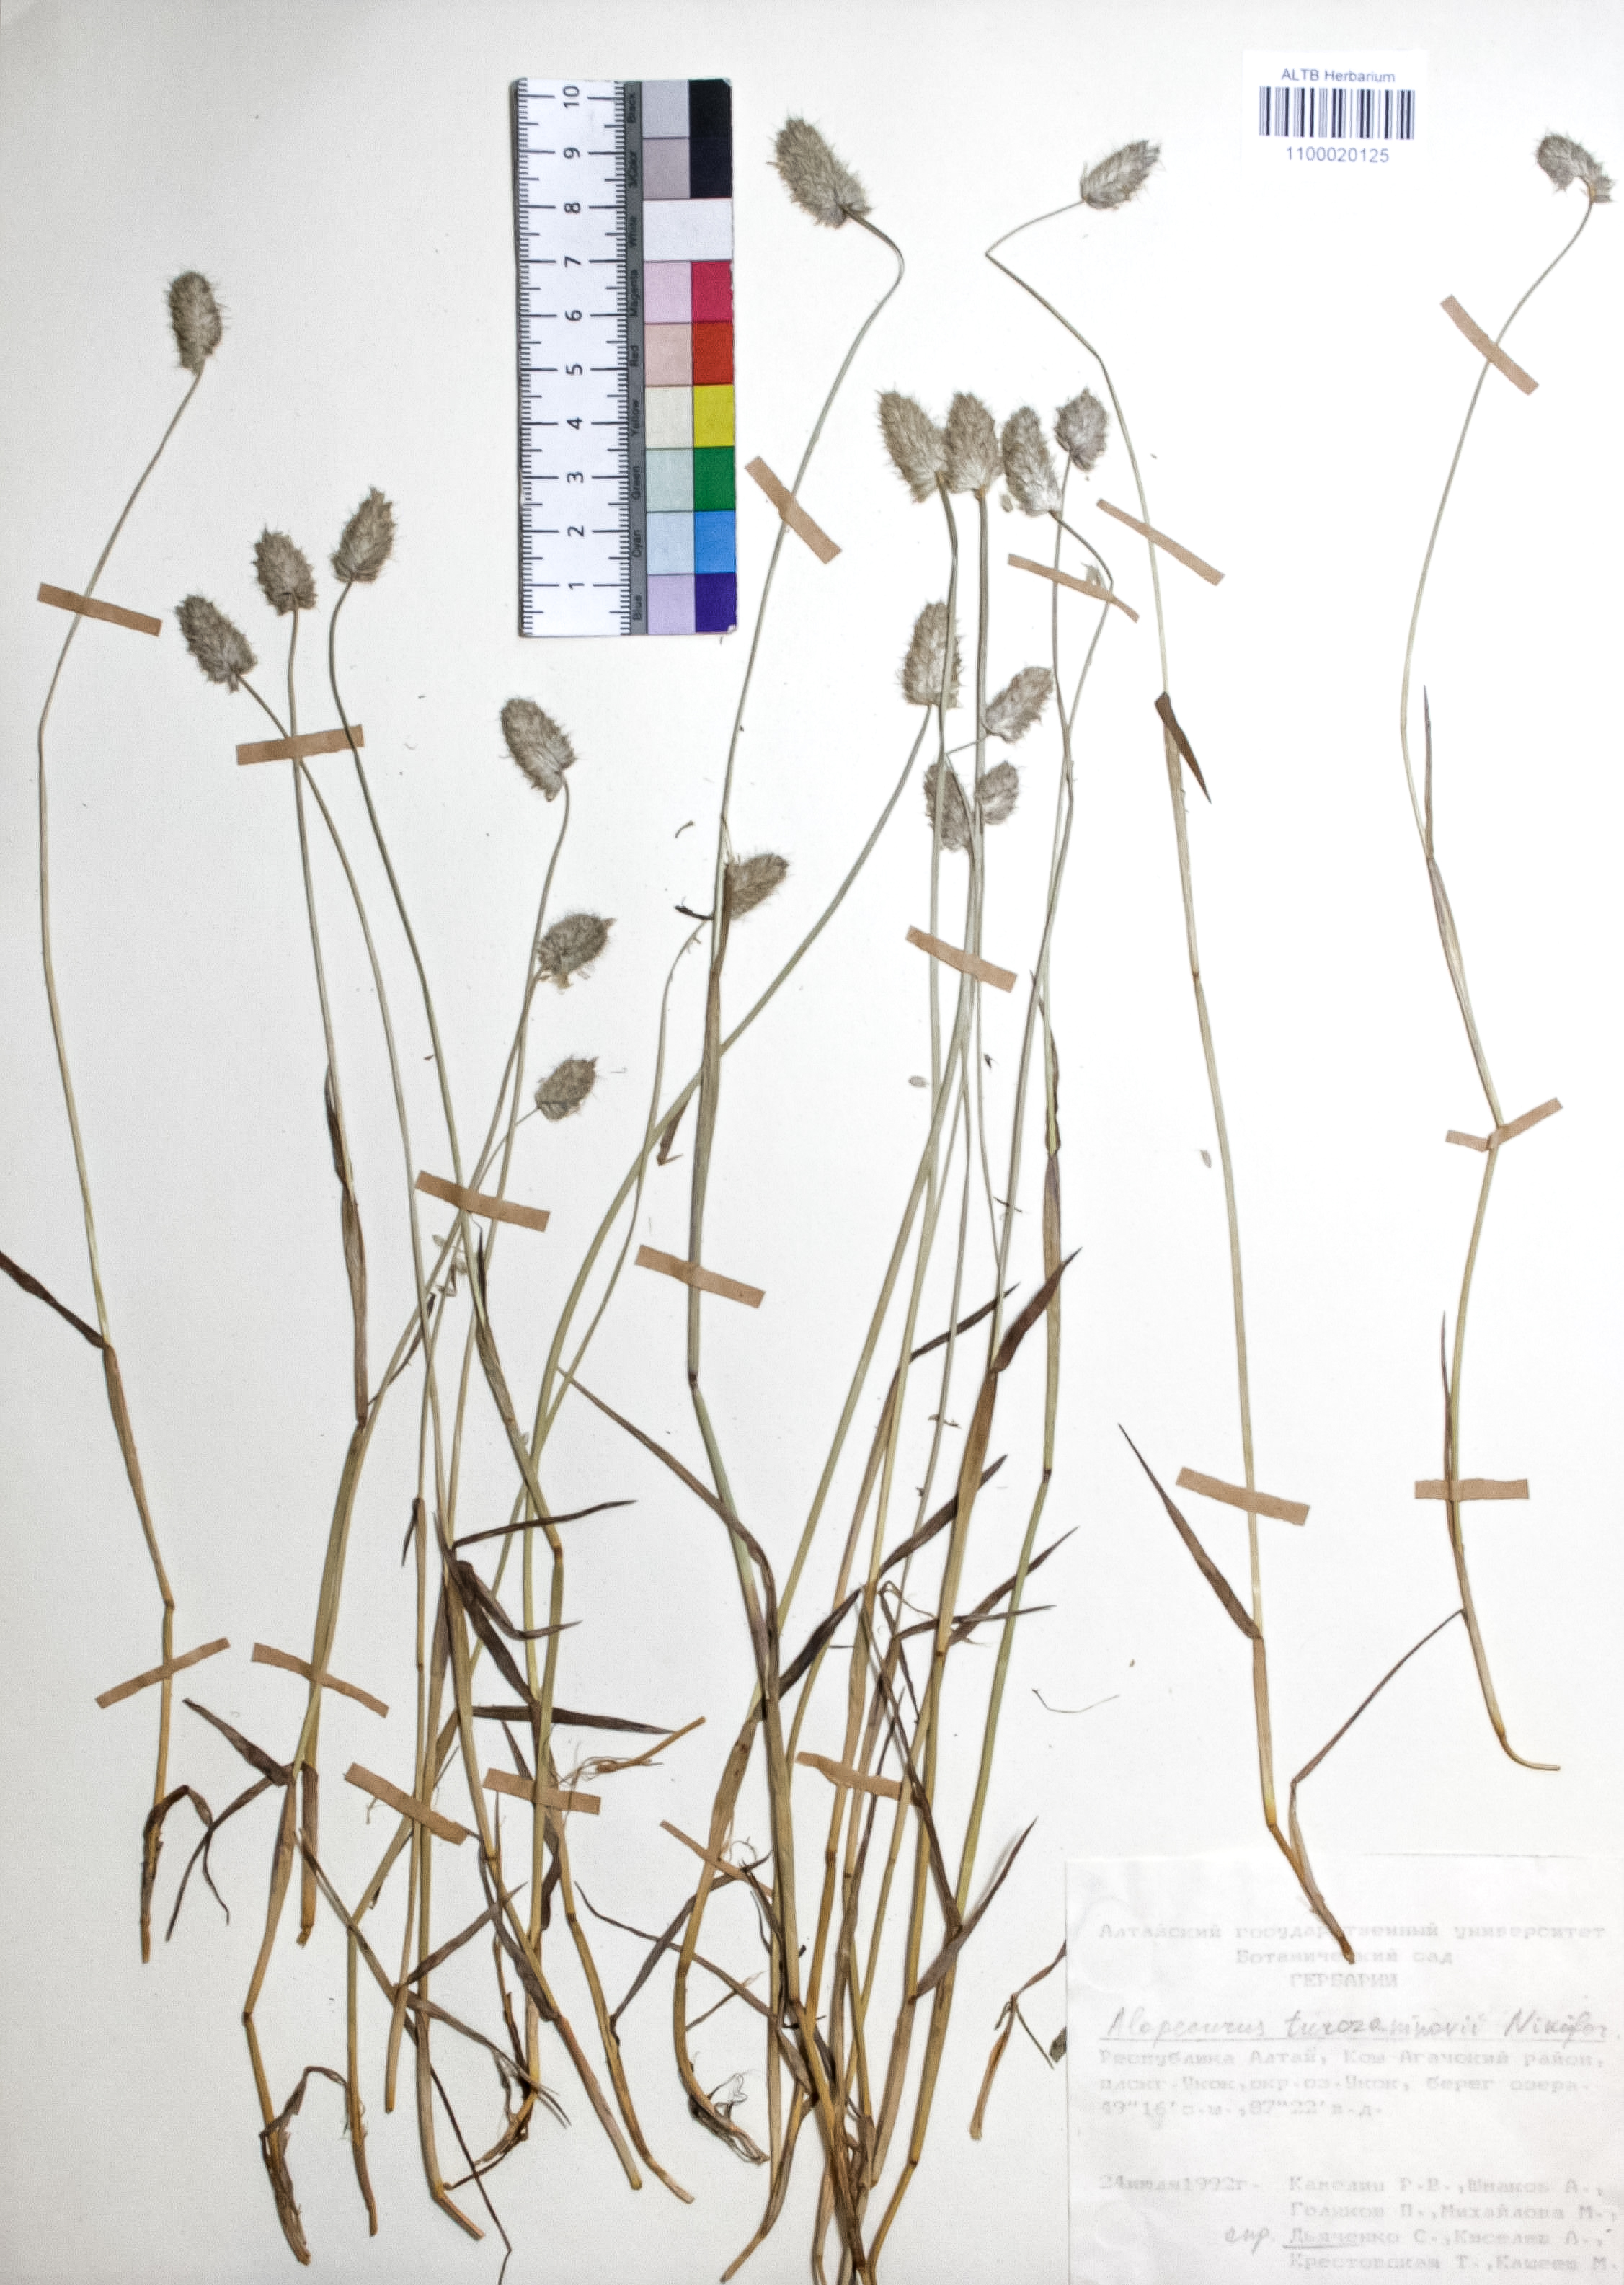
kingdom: Plantae
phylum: Tracheophyta
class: Liliopsida
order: Poales
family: Poaceae
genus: Alopecurus
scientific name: Alopecurus turczaninovii
